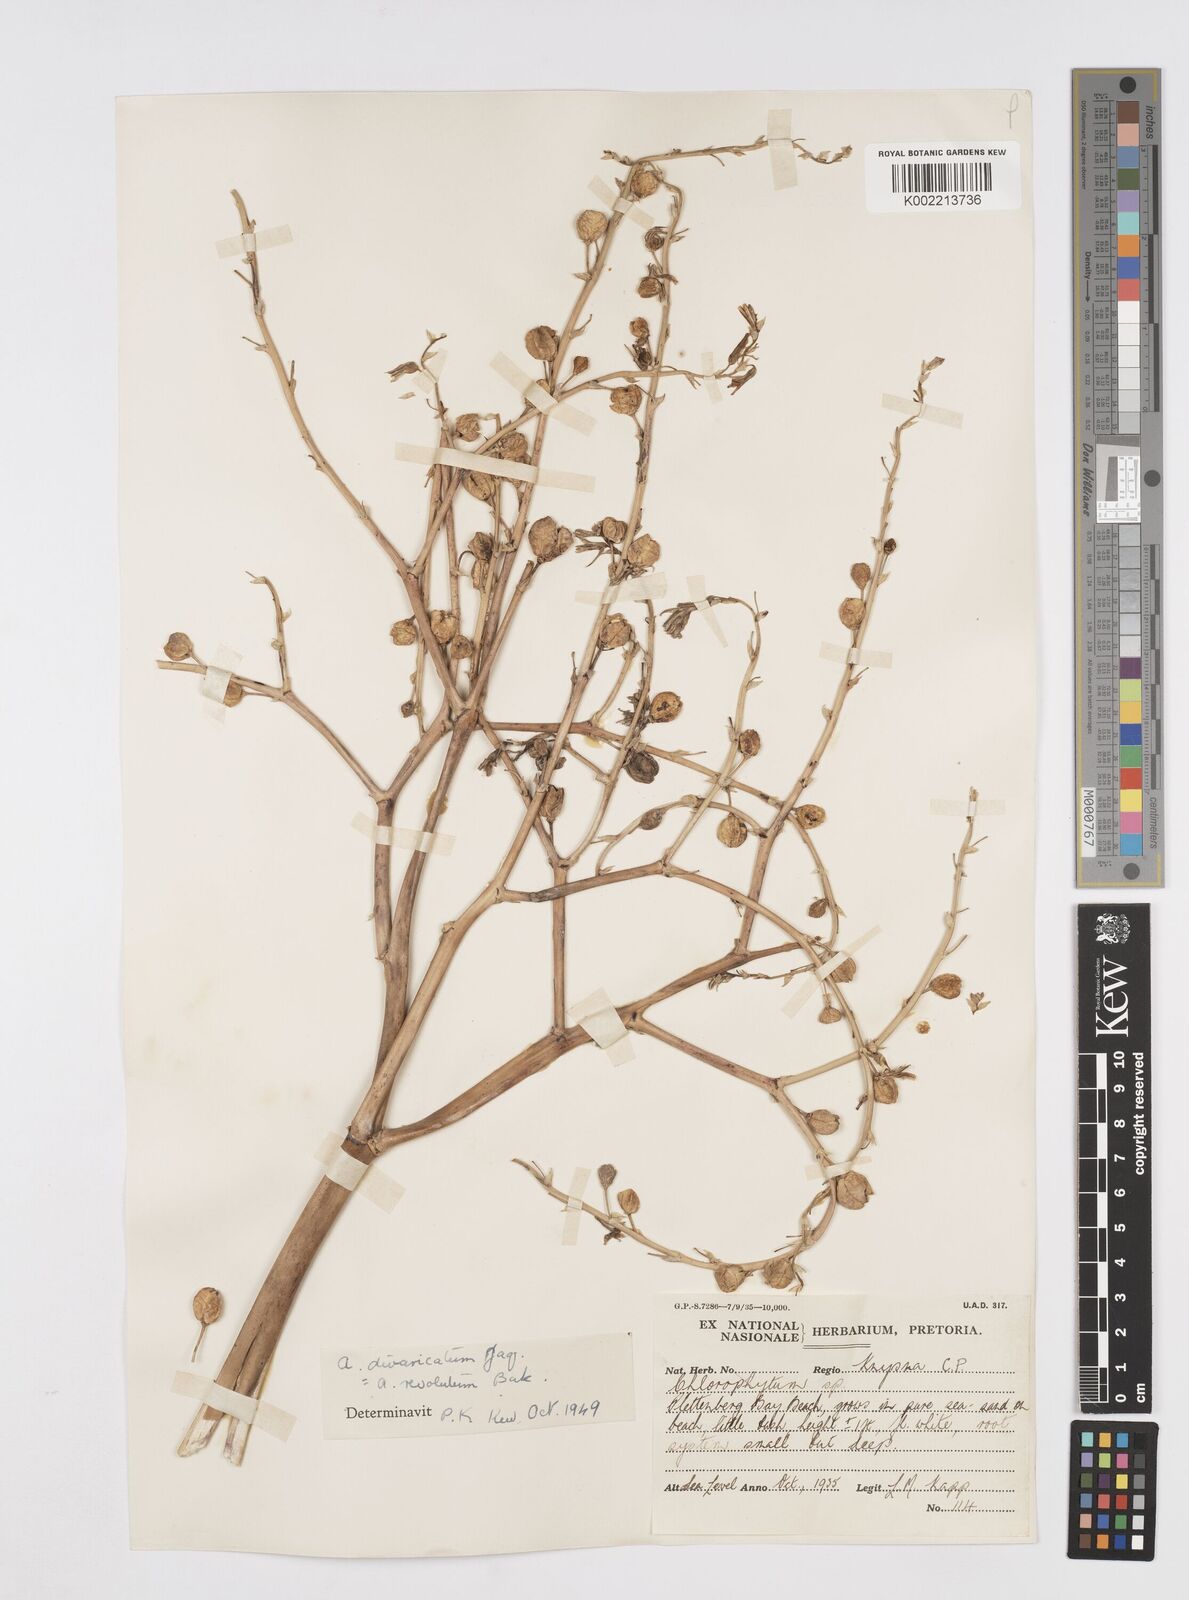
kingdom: Plantae
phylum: Tracheophyta
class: Liliopsida
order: Asparagales
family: Asphodelaceae
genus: Trachyandra
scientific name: Trachyandra divaricata
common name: Dune onionweed
